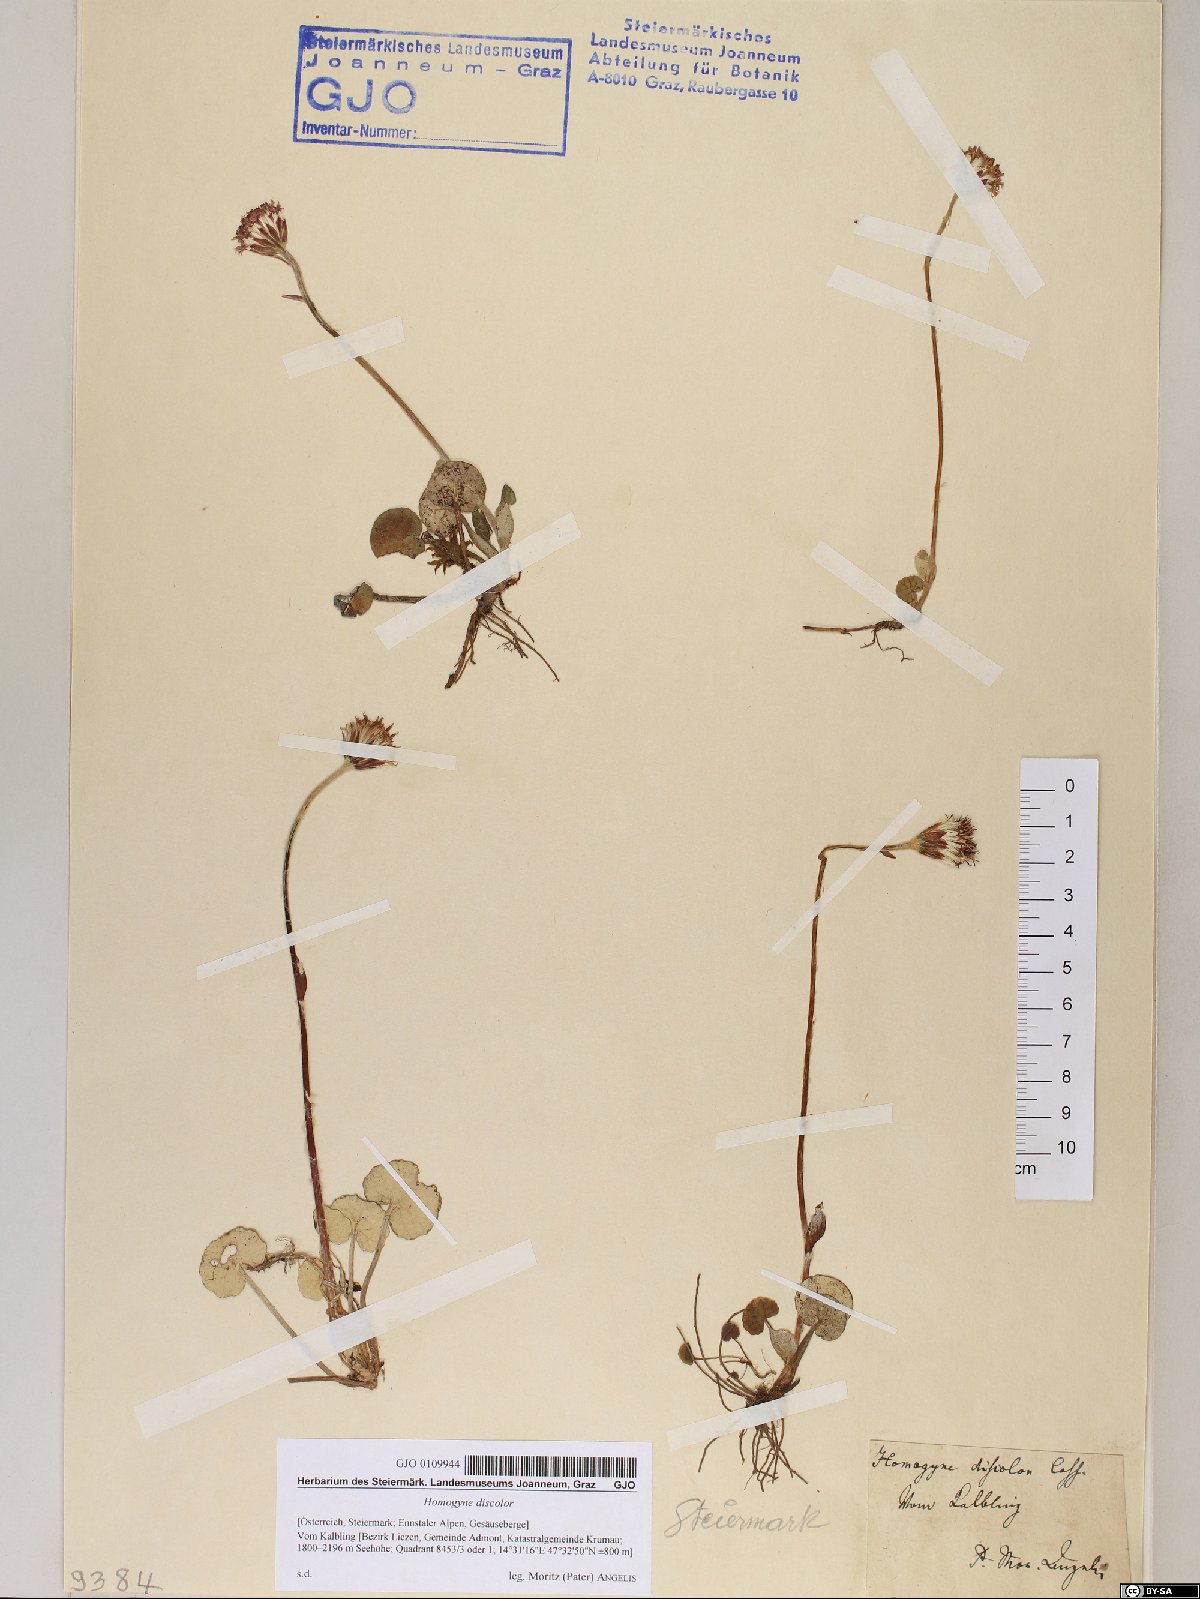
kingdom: Plantae
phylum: Tracheophyta
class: Magnoliopsida
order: Asterales
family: Asteraceae
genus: Homogyne
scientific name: Homogyne discolor
